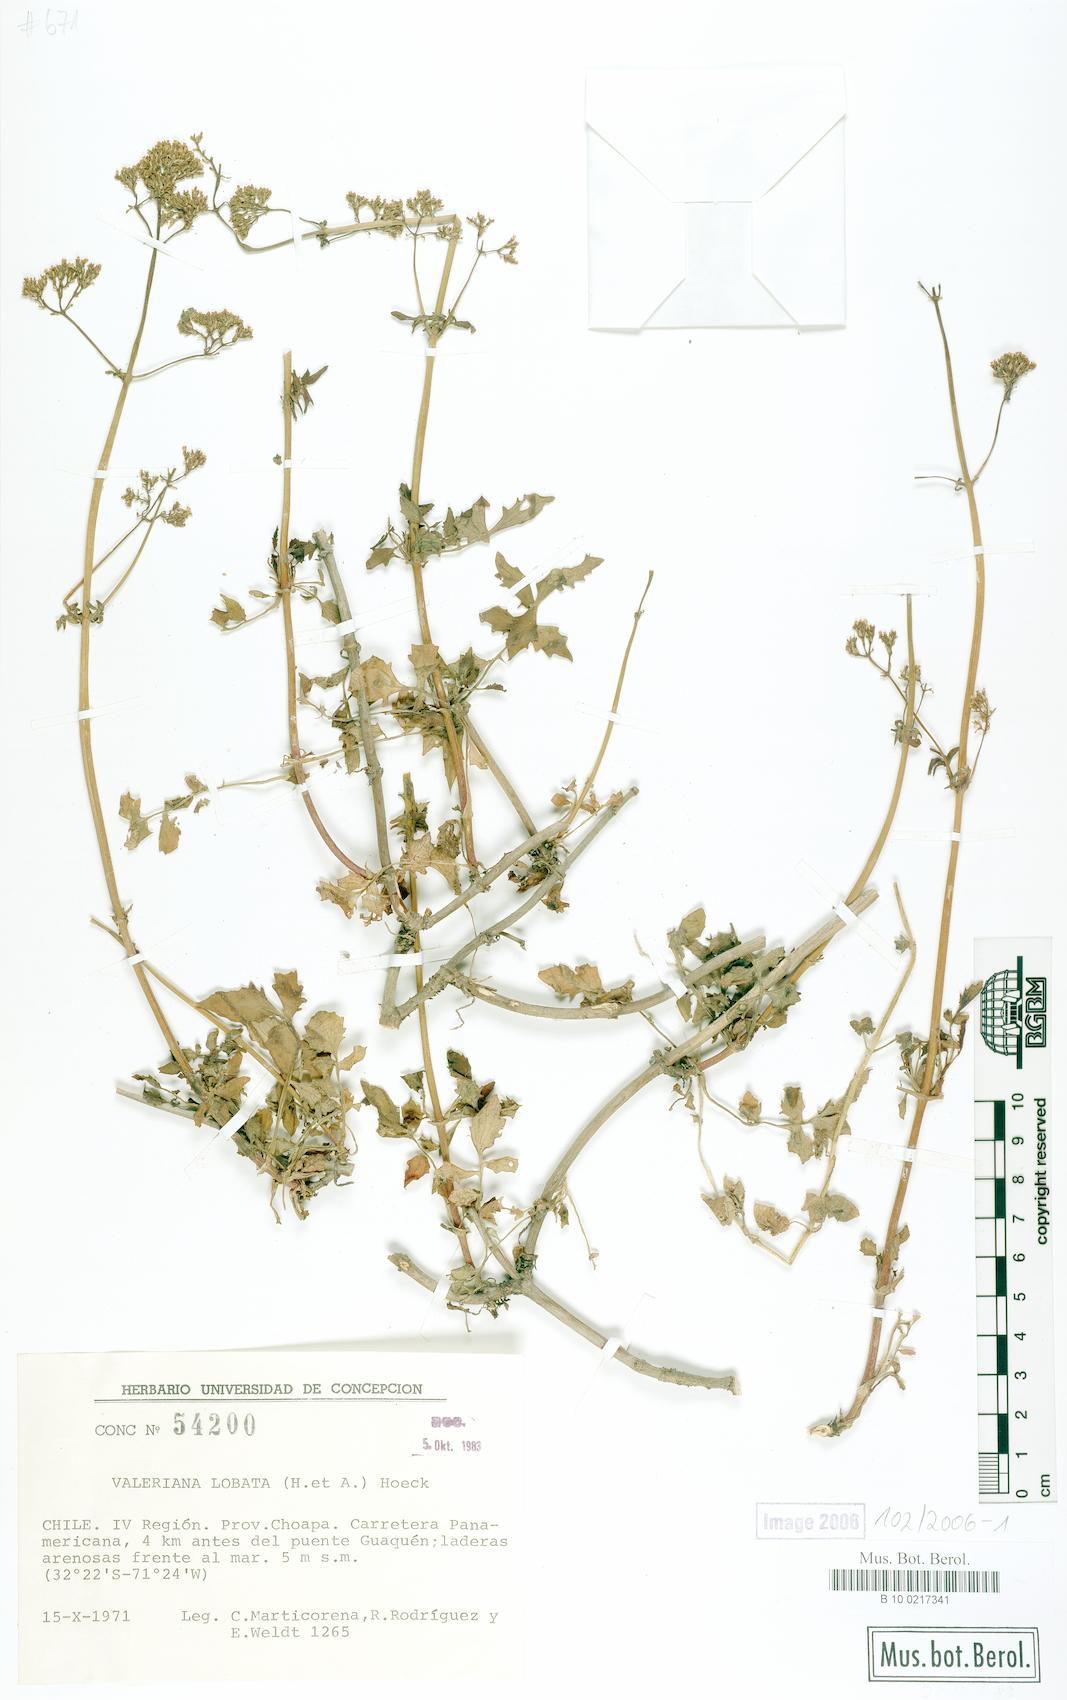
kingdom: Plantae
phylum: Tracheophyta
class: Magnoliopsida
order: Dipsacales
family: Caprifoliaceae
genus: Valeriana
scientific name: Valeriana crispa
